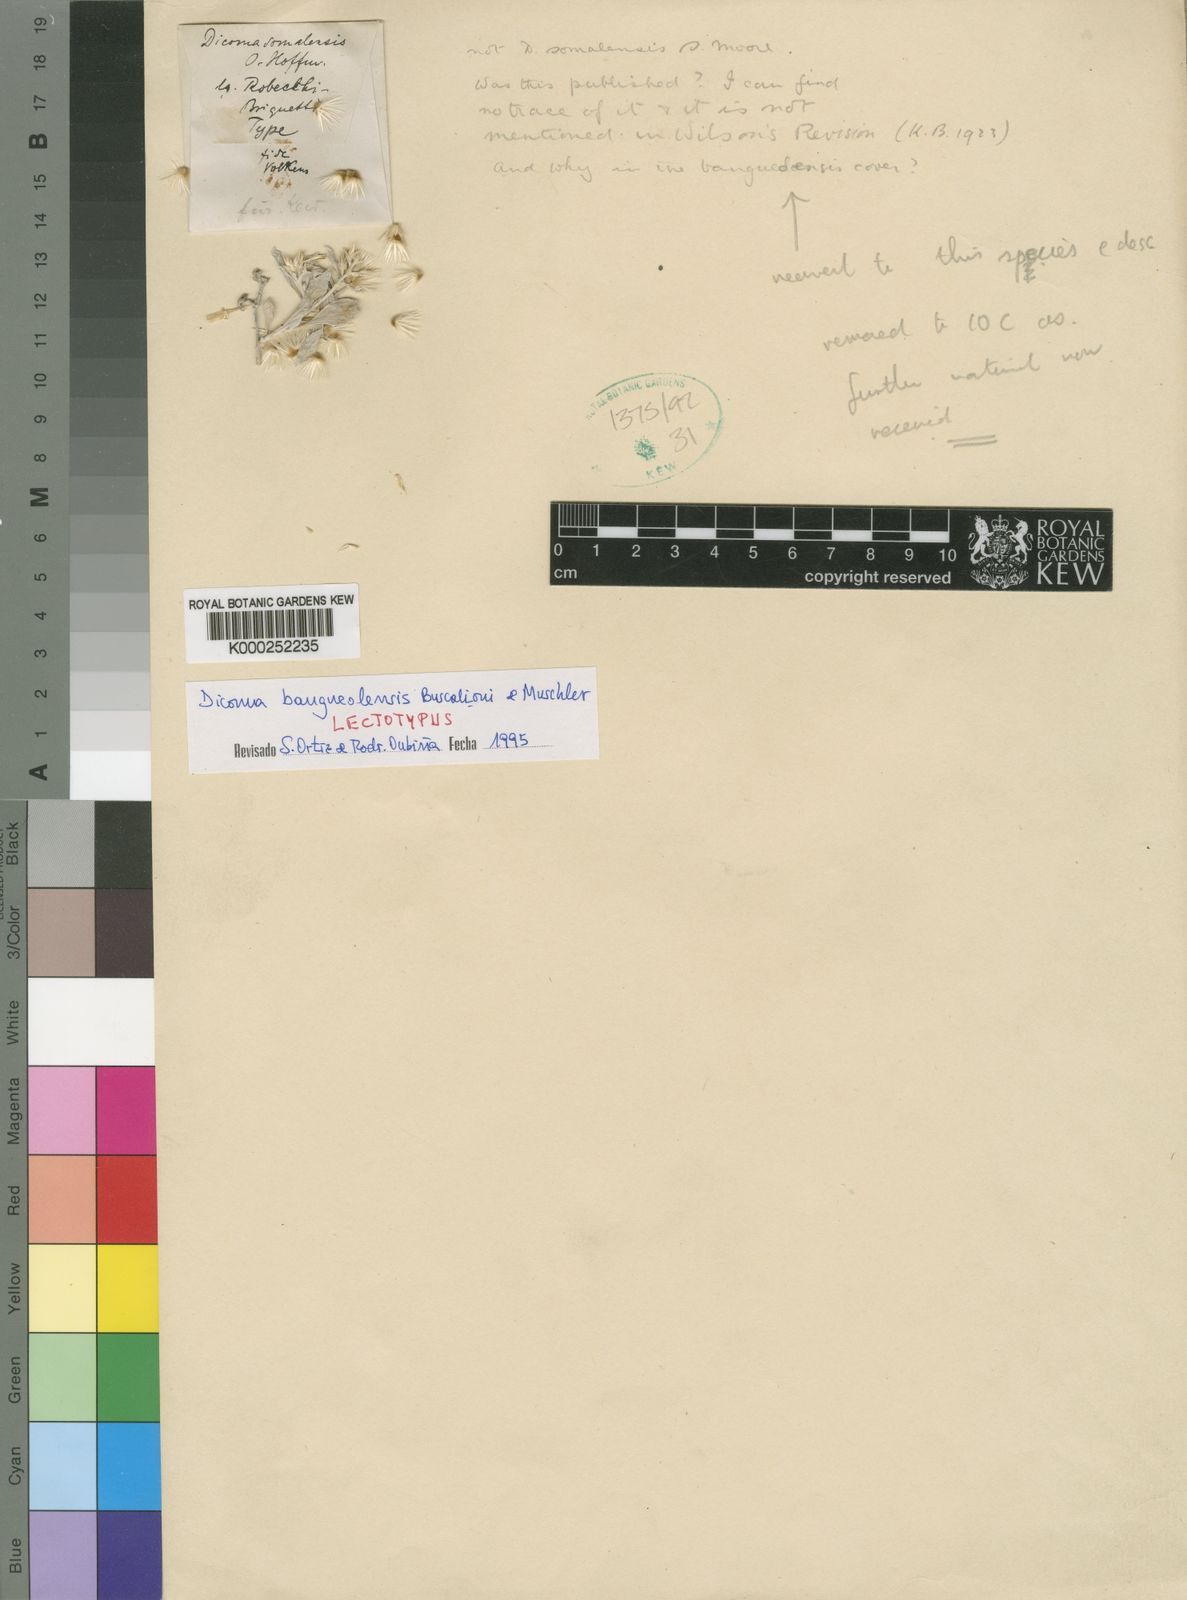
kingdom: Plantae
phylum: Tracheophyta
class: Magnoliopsida
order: Asterales
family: Asteraceae
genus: Dicoma
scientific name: Dicoma bangueolensis
